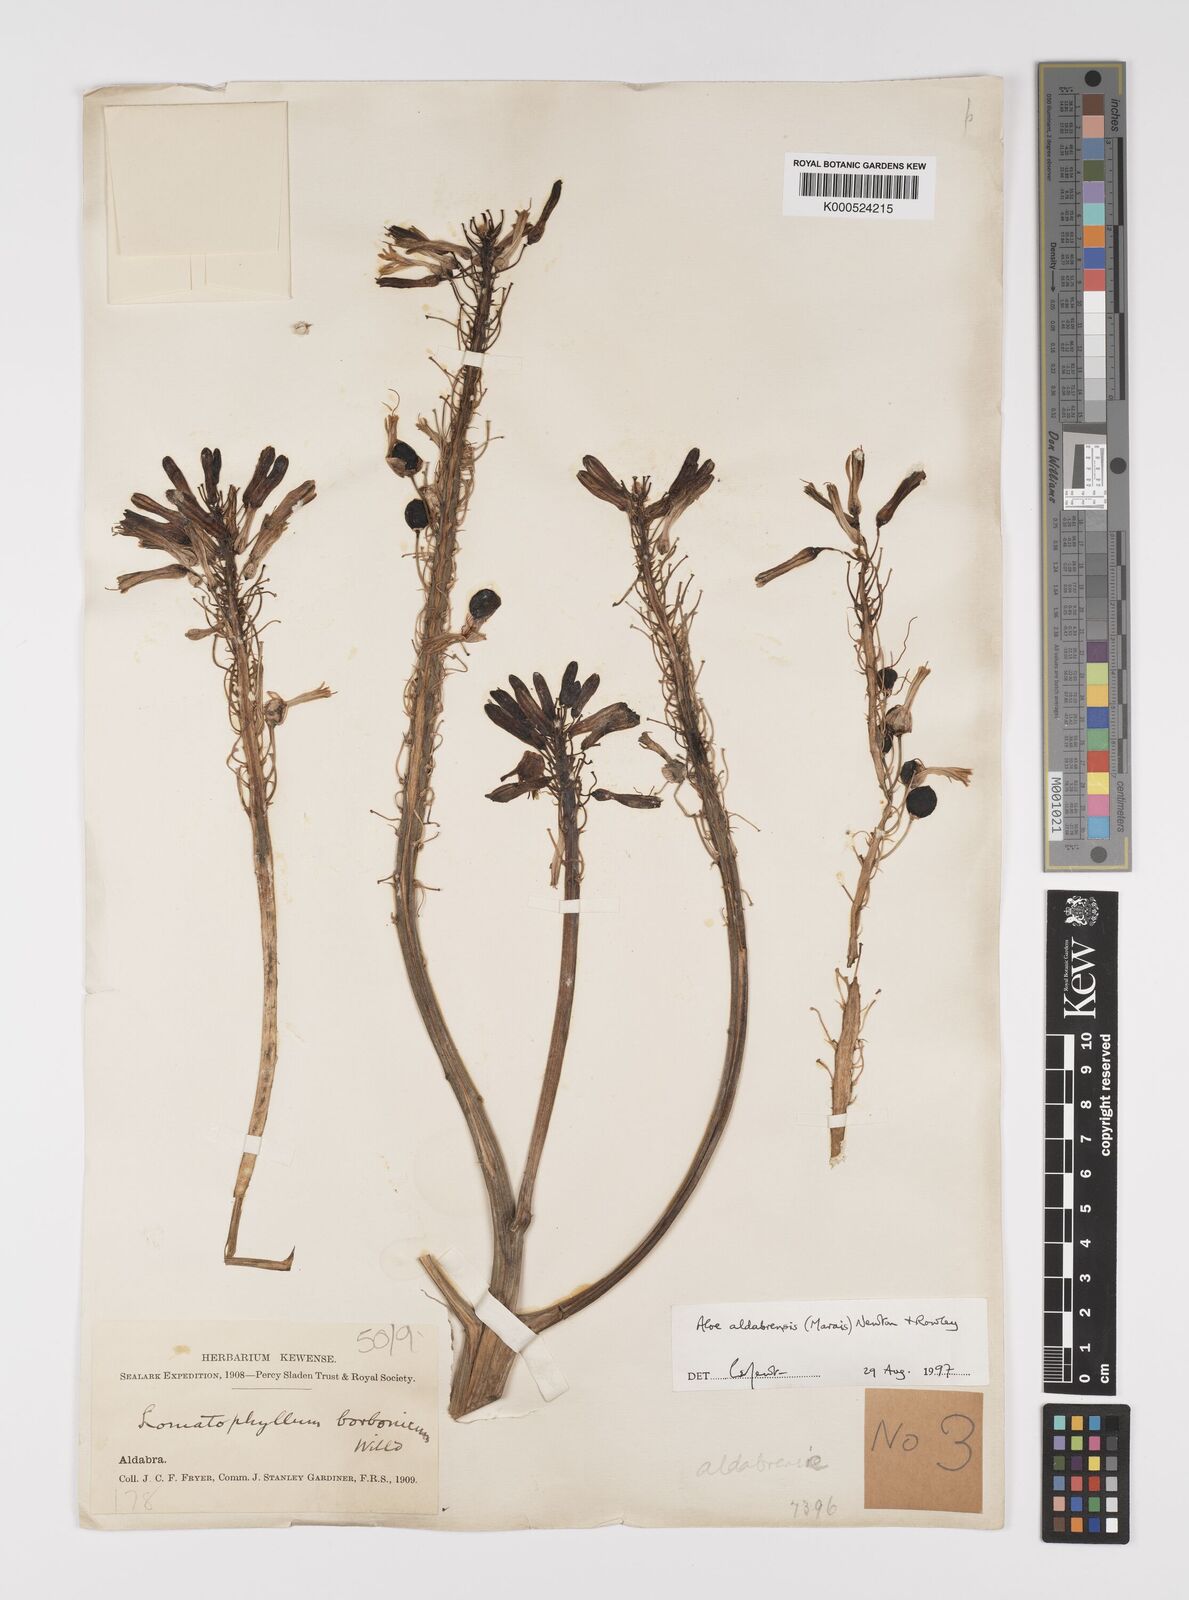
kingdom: Plantae
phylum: Tracheophyta
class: Liliopsida
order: Asparagales
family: Asphodelaceae
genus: Aloe
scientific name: Aloe aldabrensis
